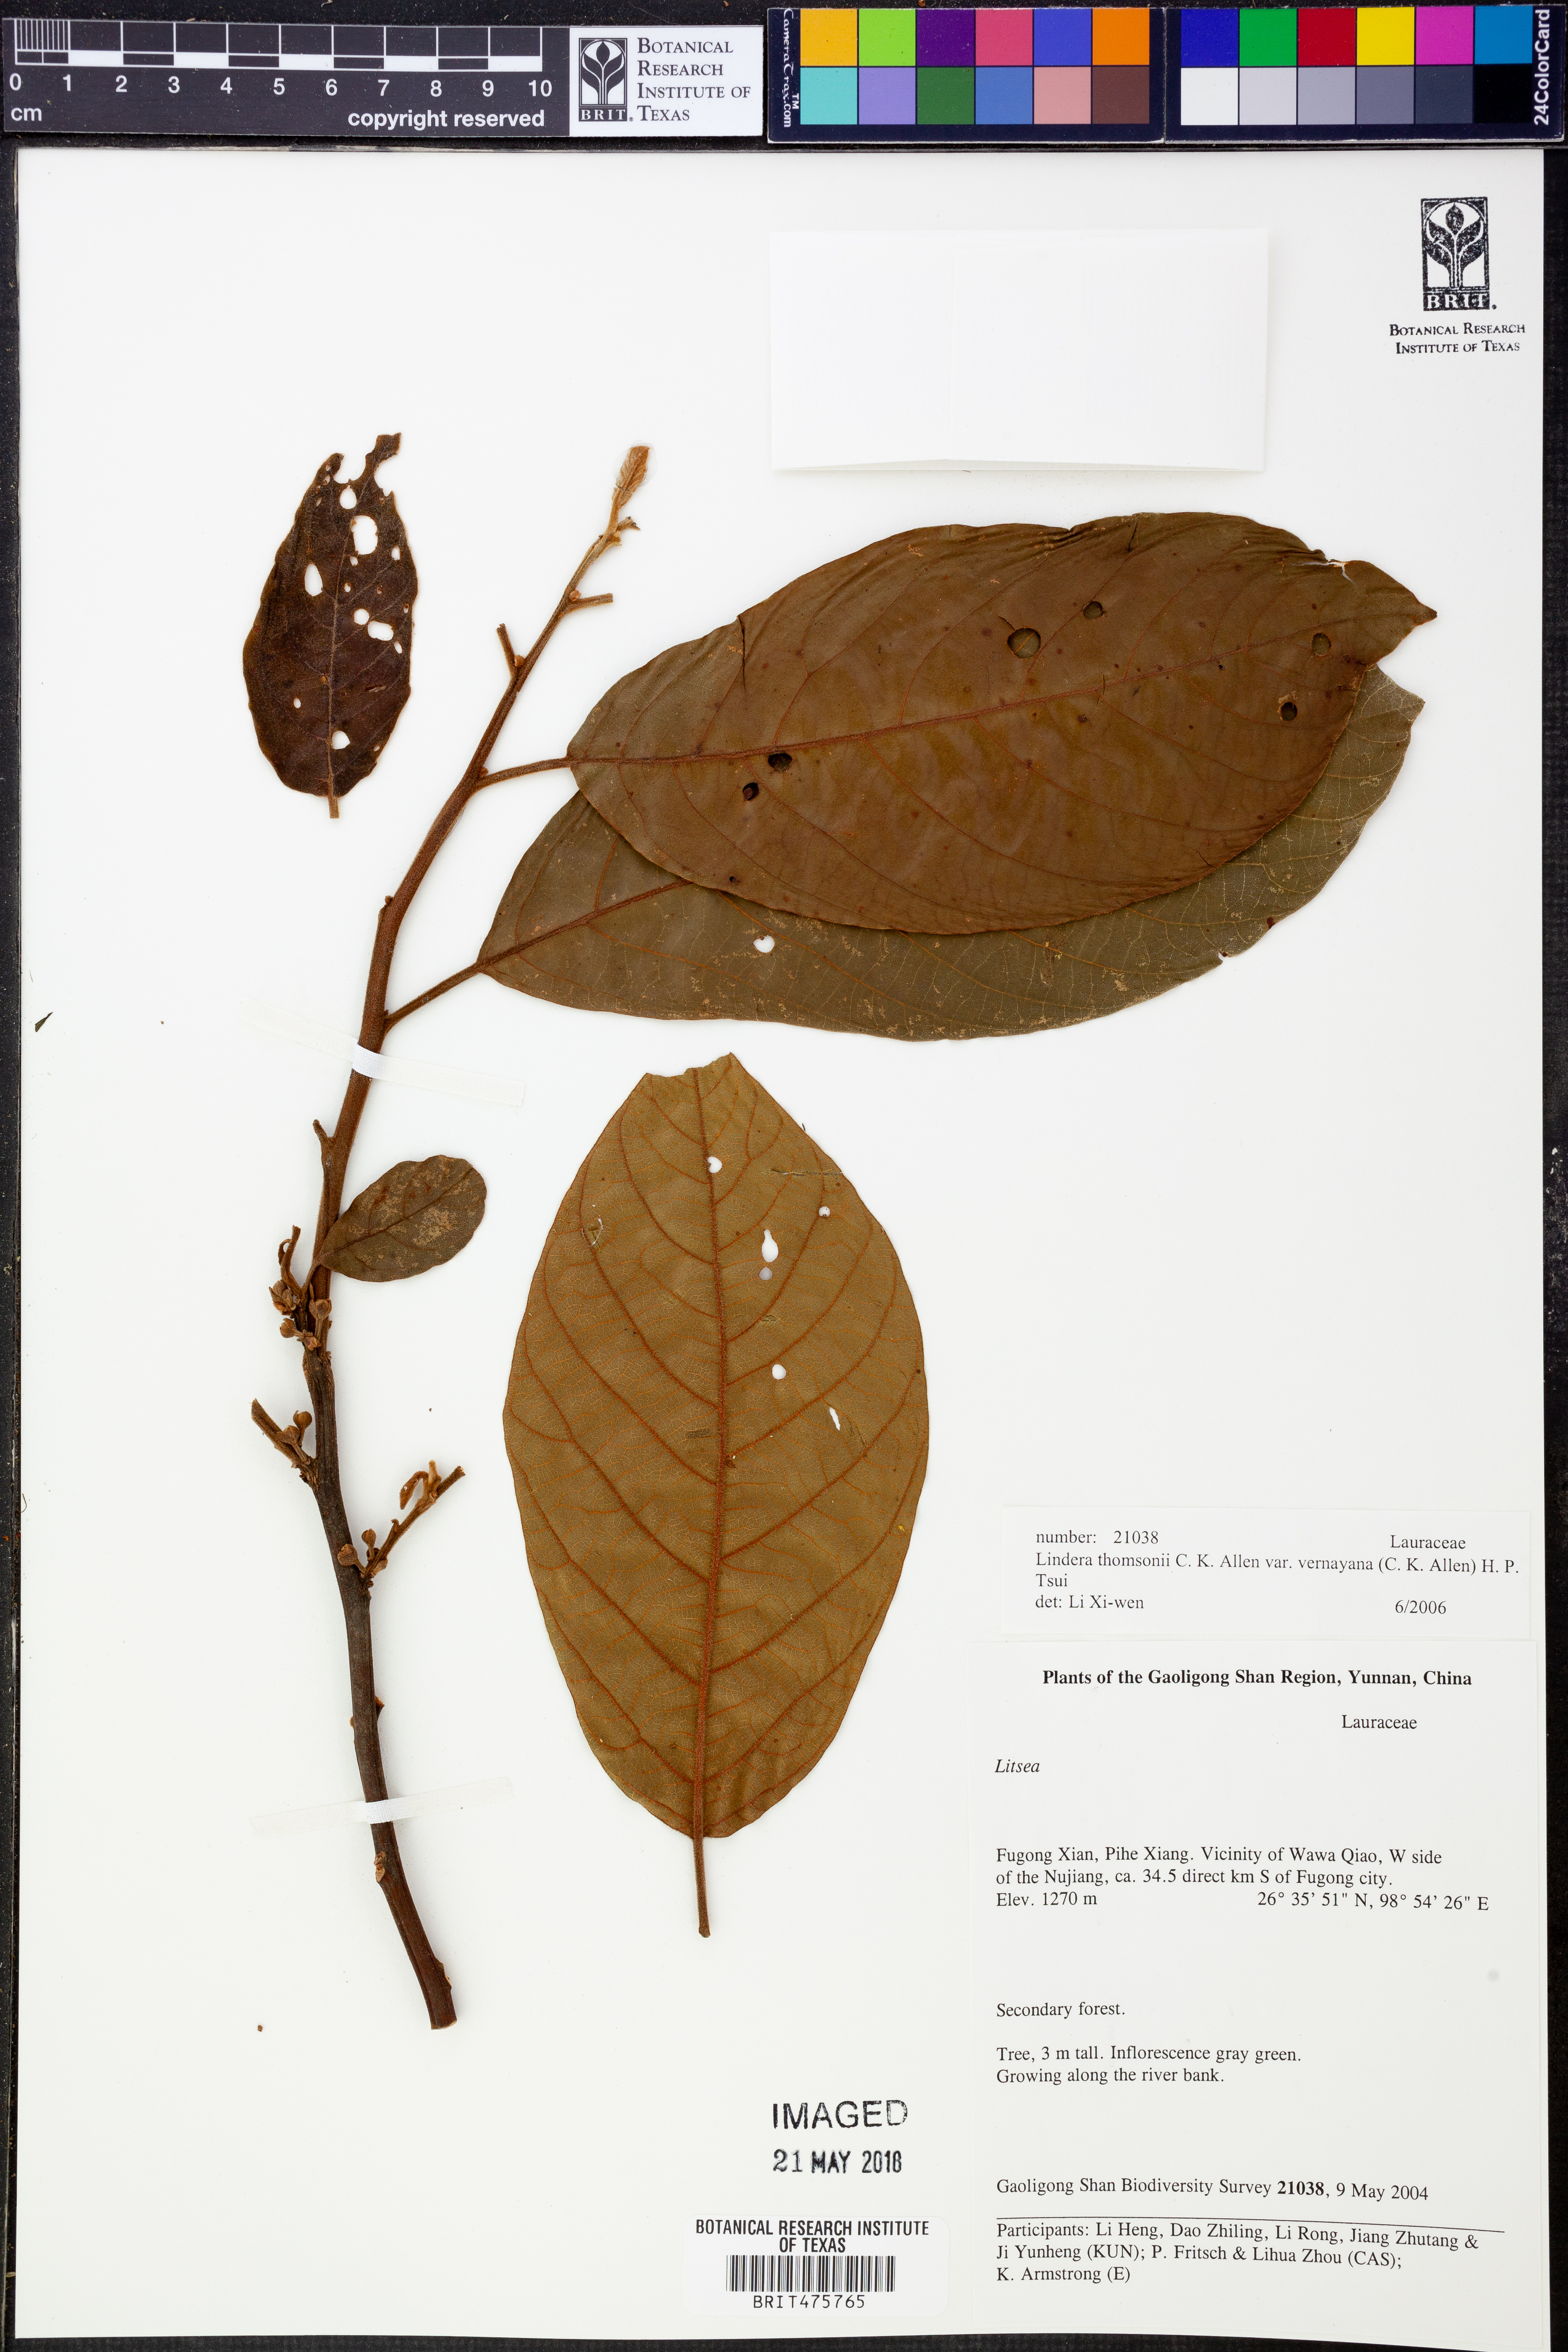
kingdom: Plantae
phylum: Tracheophyta
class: Magnoliopsida
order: Laurales
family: Lauraceae
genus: Litsea
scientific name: Litsea monopetala
